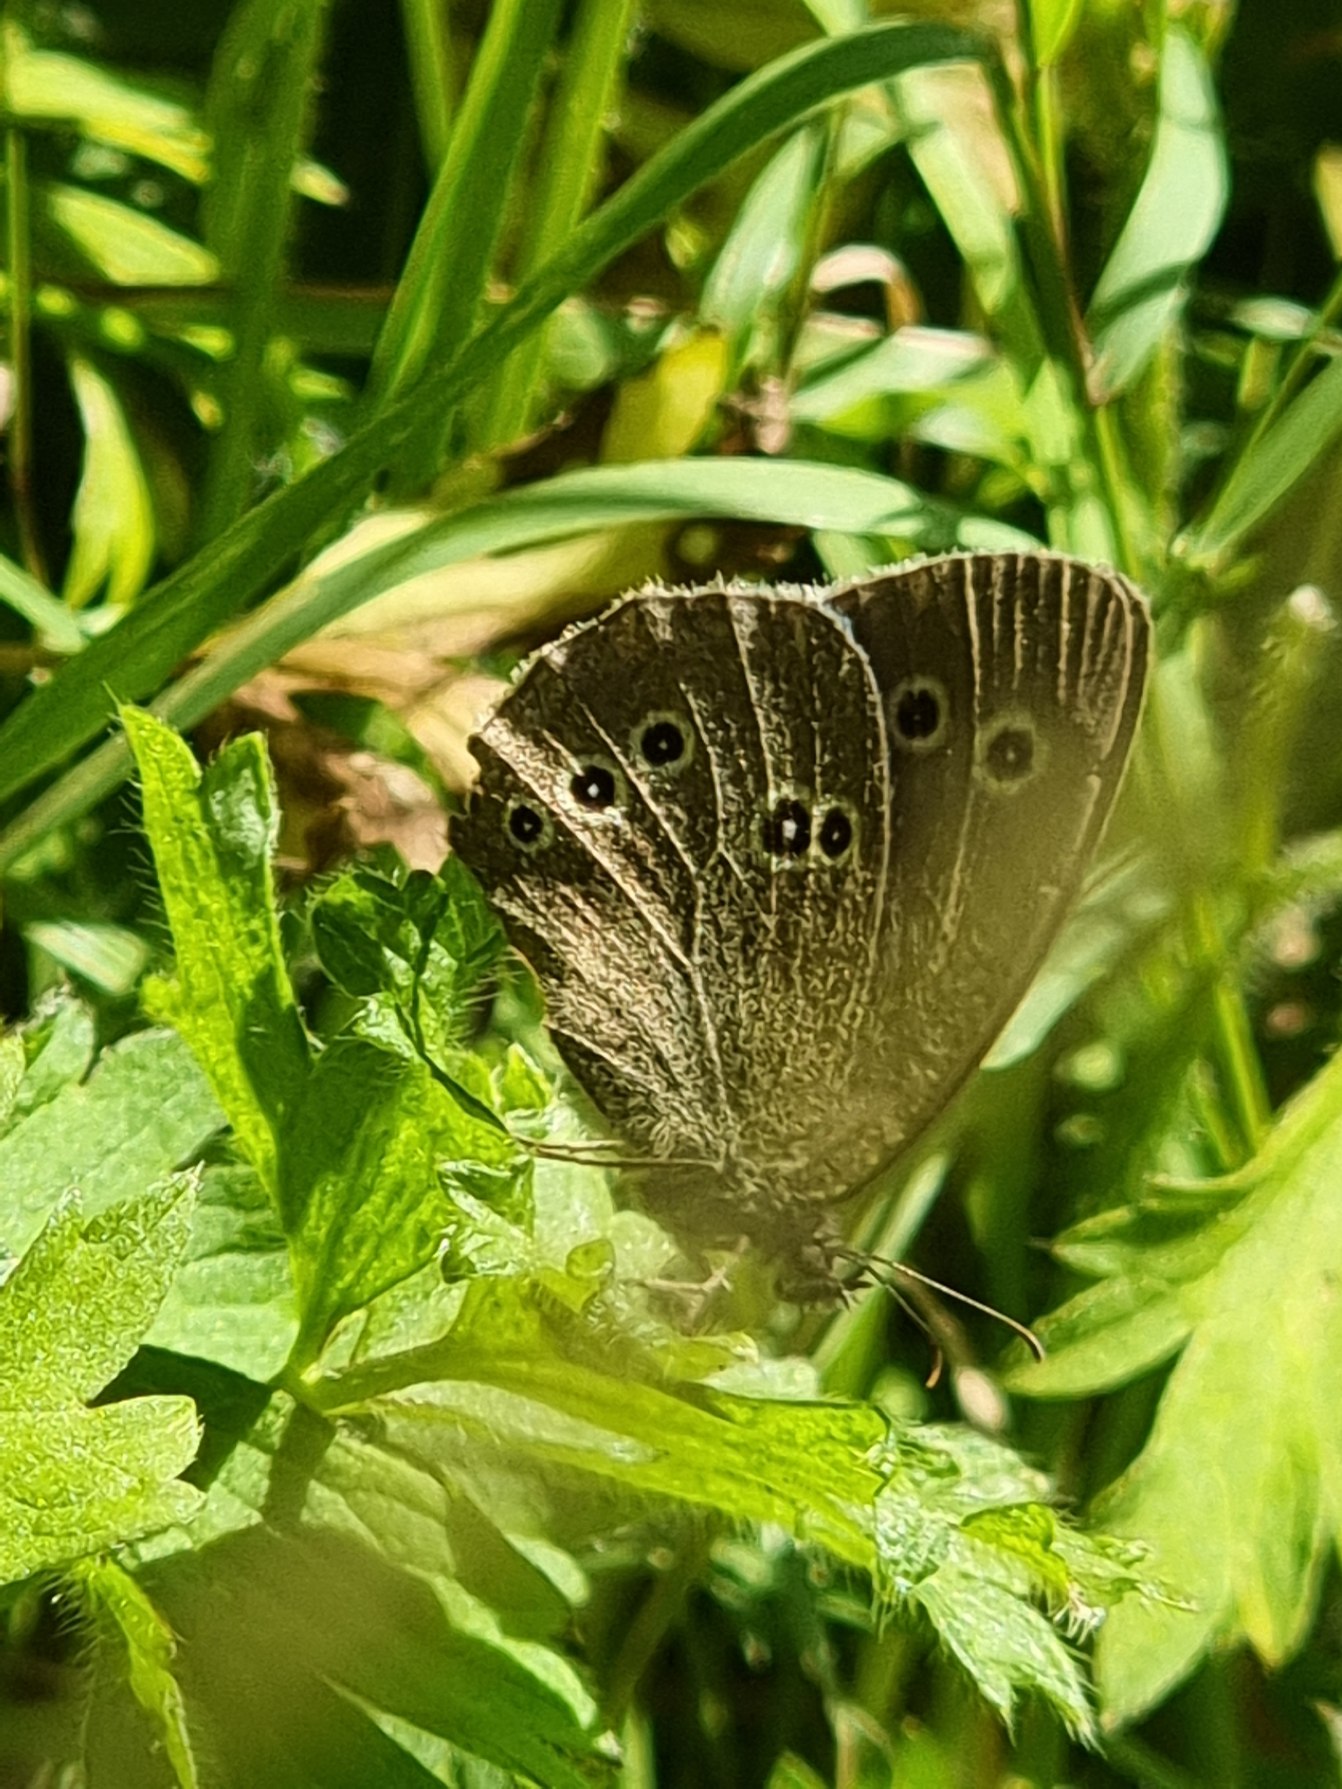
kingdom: Animalia
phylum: Arthropoda
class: Insecta
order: Lepidoptera
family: Nymphalidae
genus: Aphantopus
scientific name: Aphantopus hyperantus
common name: Engrandøje
